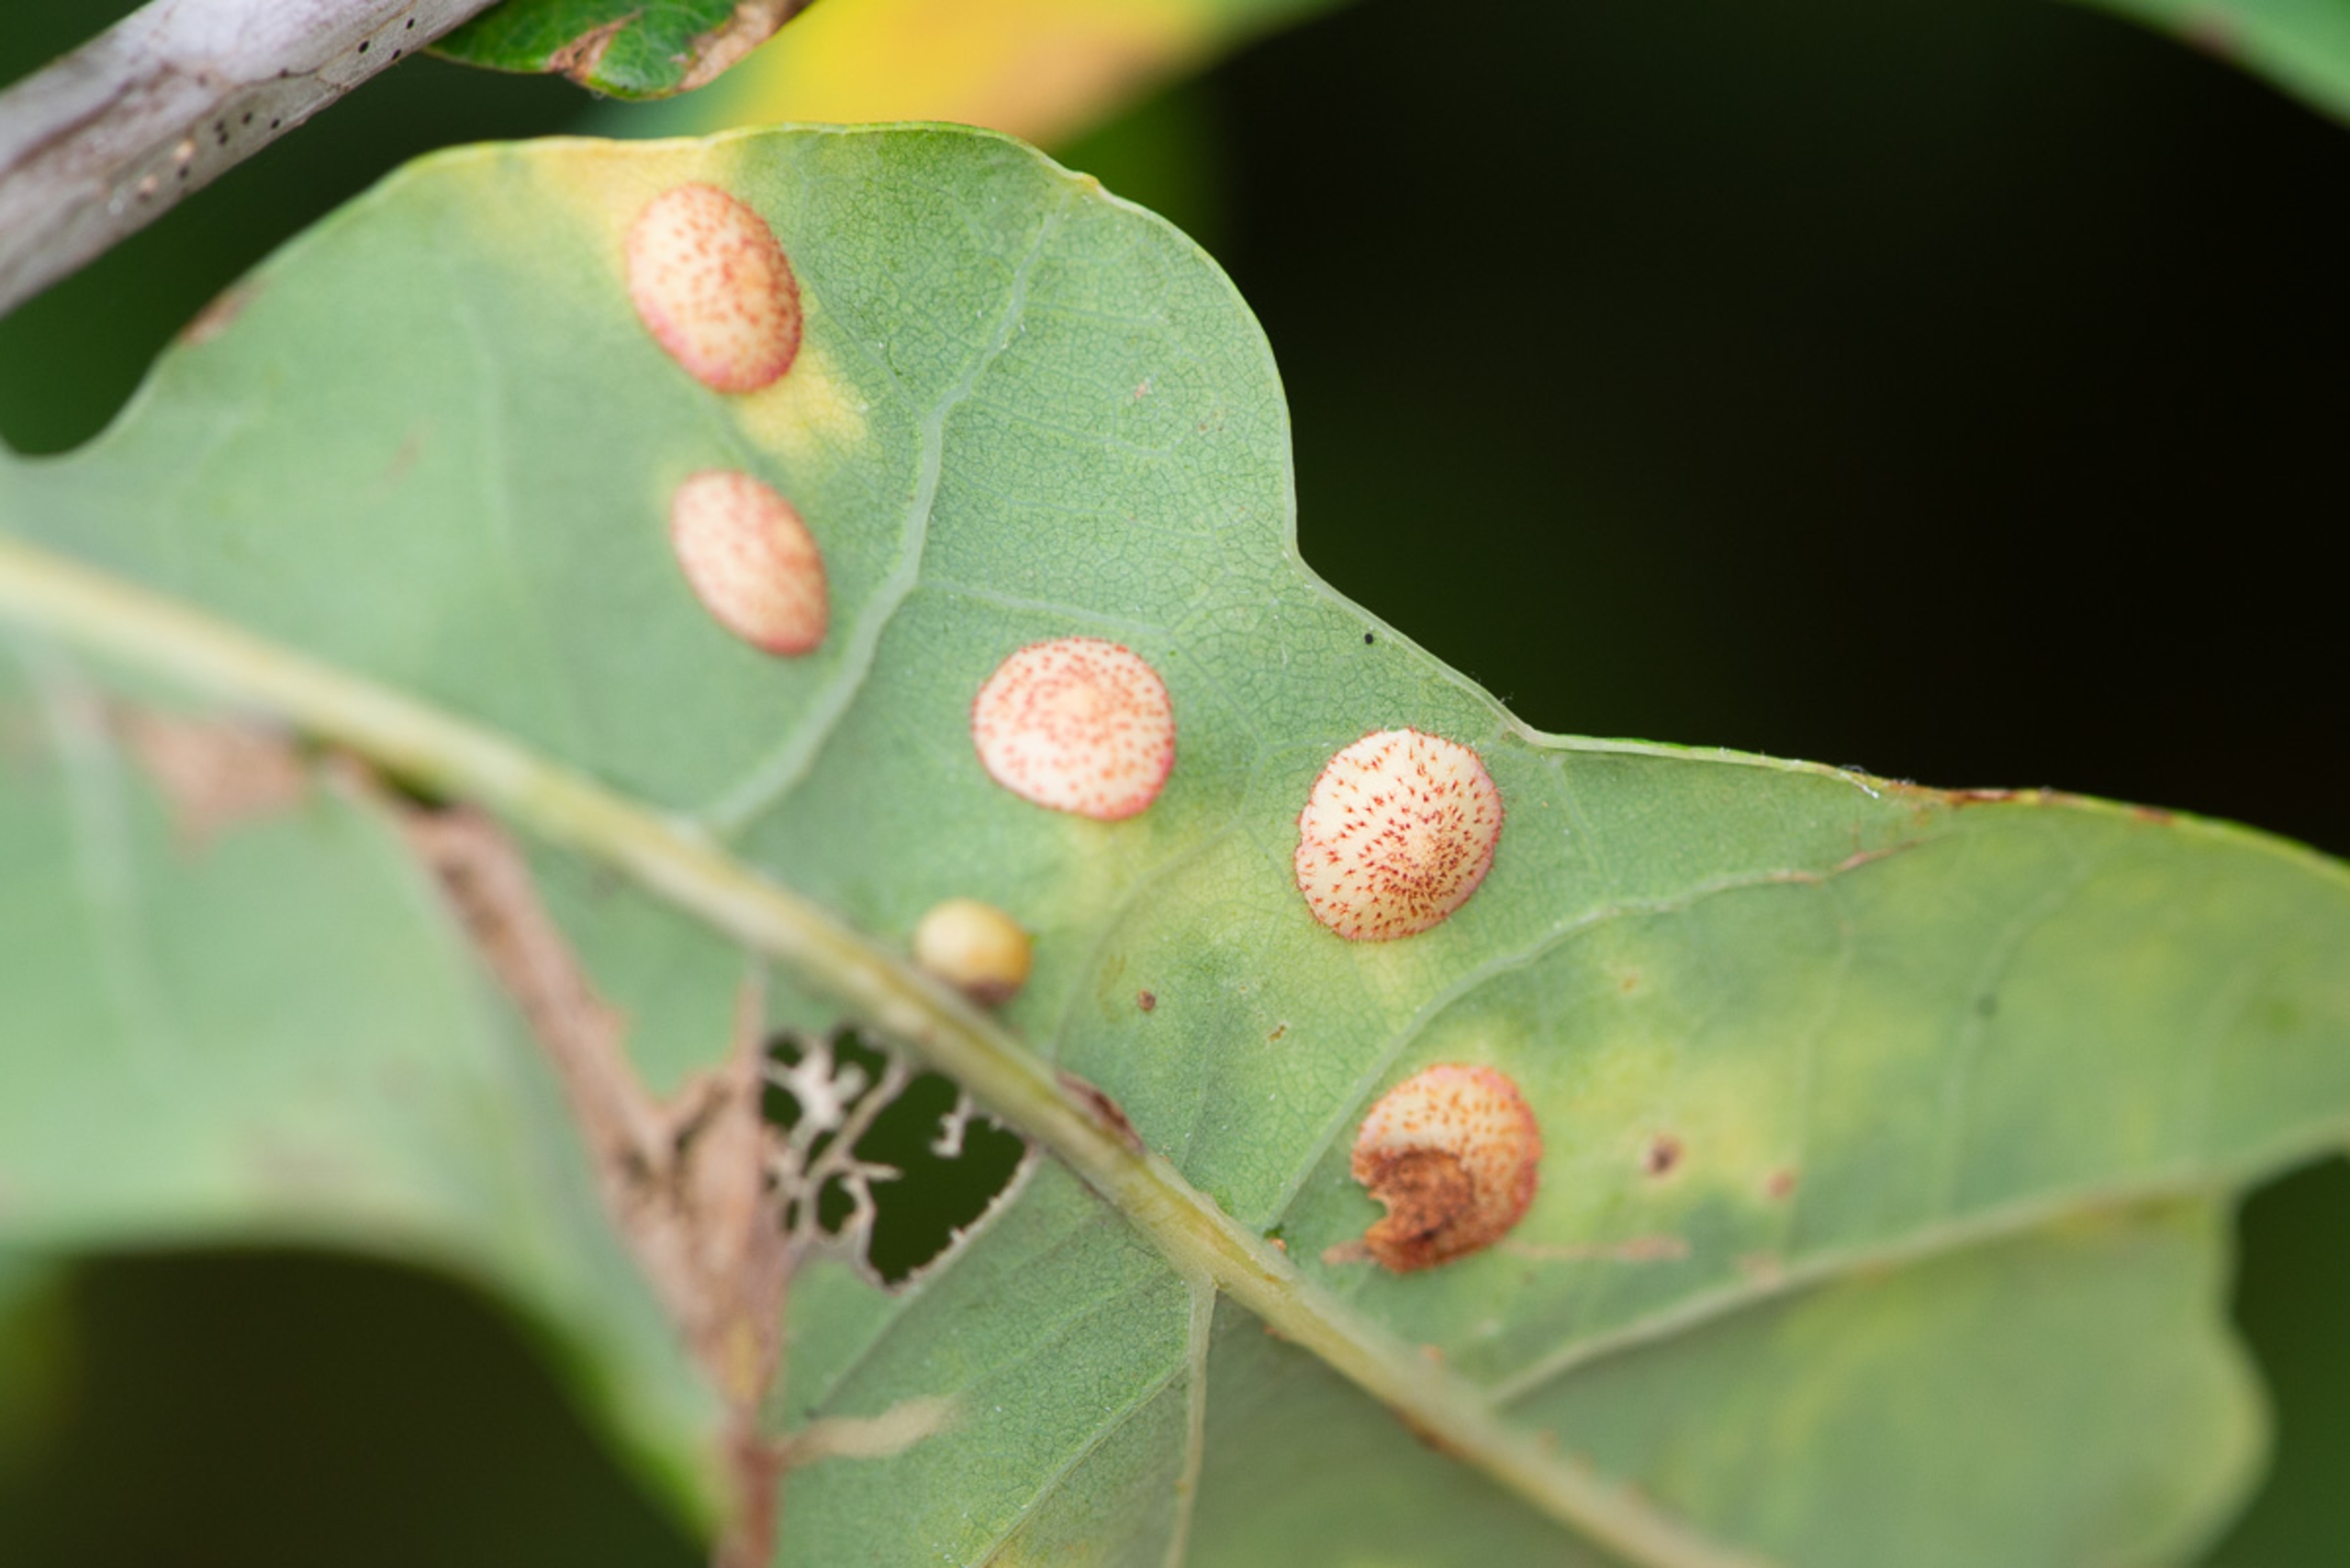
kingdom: Animalia
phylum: Arthropoda
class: Insecta
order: Hymenoptera
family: Cynipidae
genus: Neuroterus
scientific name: Neuroterus quercusbaccarum
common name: Linsegalhveps
